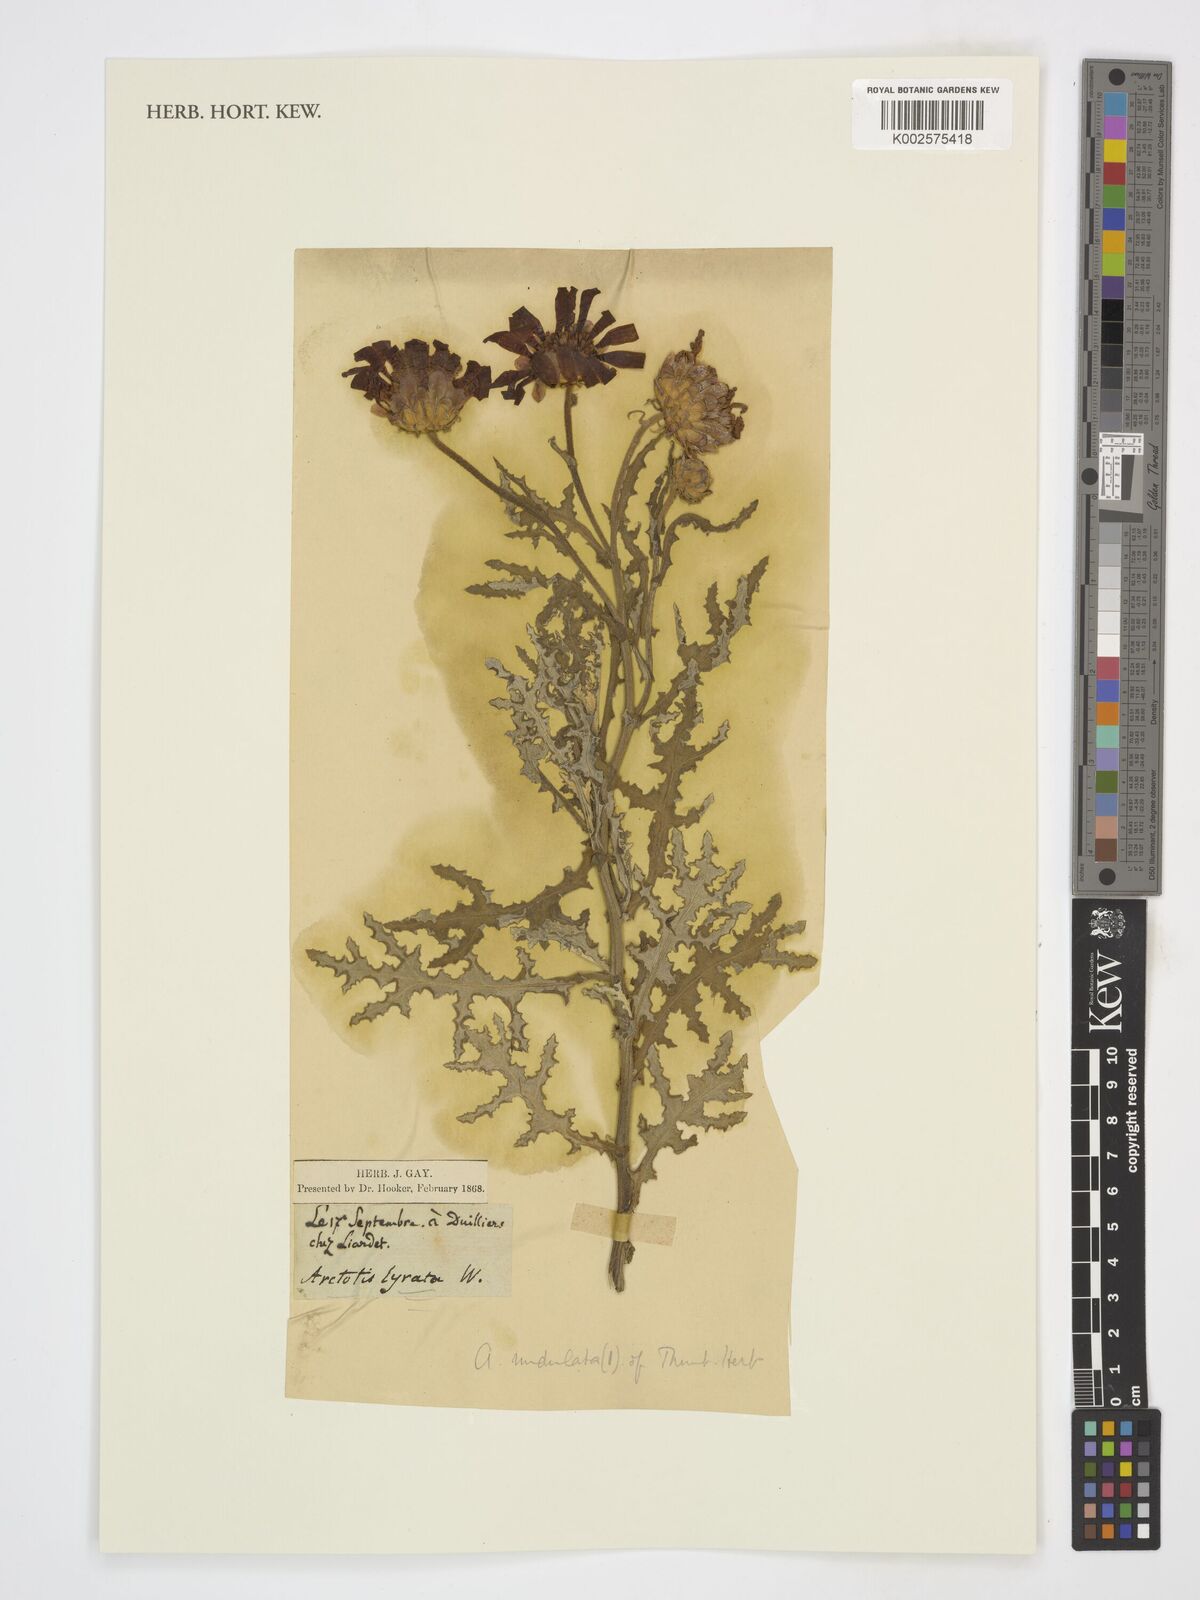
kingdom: Plantae
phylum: Tracheophyta
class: Magnoliopsida
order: Asterales
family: Asteraceae
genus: Arctotis
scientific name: Arctotis aspera
